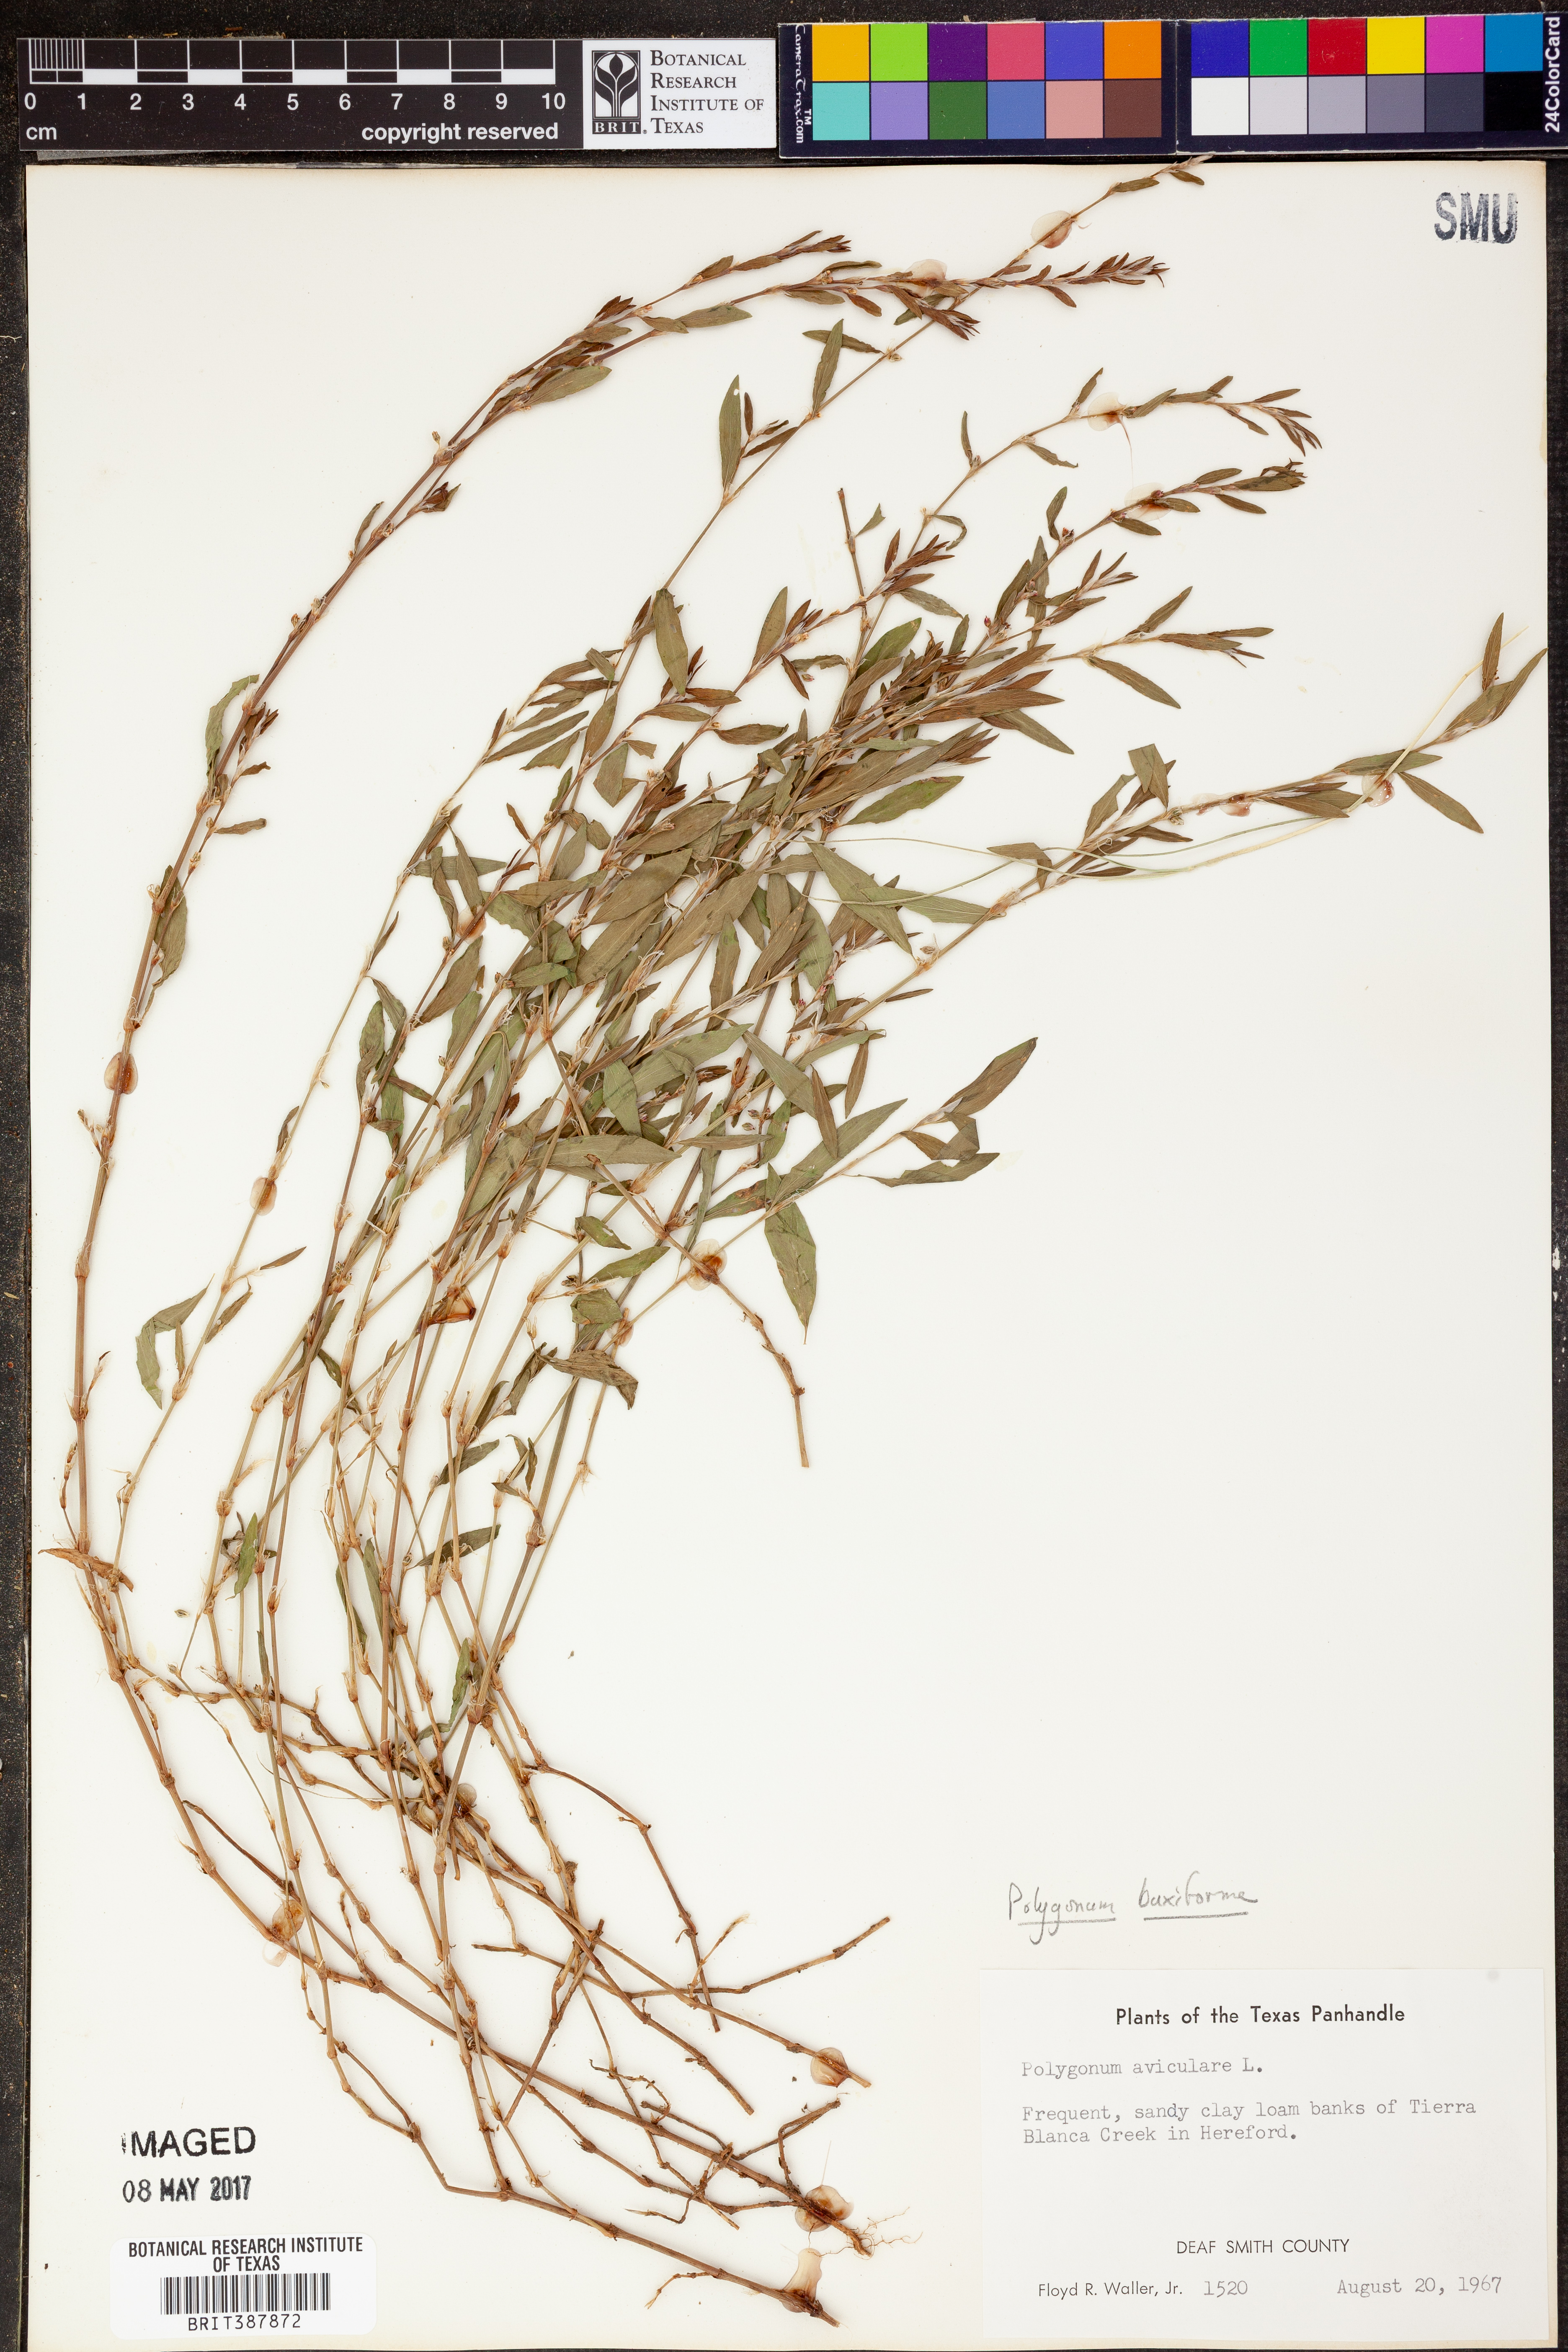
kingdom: Plantae
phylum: Tracheophyta
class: Magnoliopsida
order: Caryophyllales
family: Polygonaceae
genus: Polygonum
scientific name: Polygonum aviculare
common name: Prostrate knotweed
